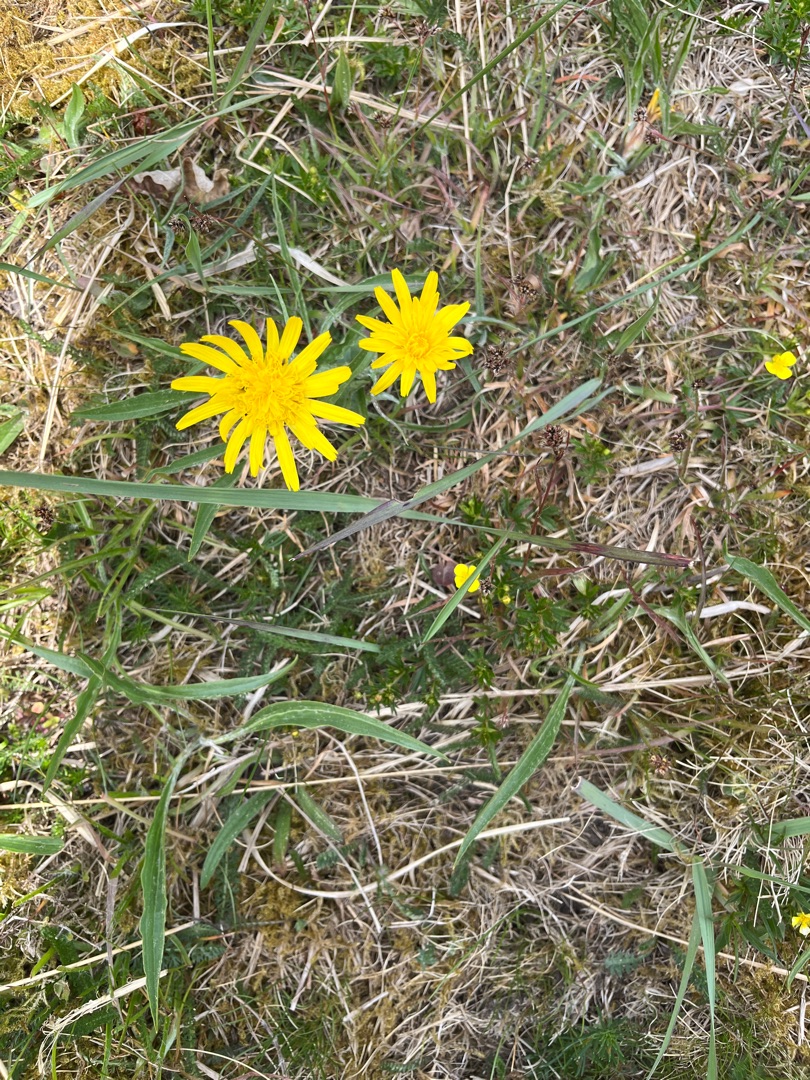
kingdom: Plantae
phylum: Tracheophyta
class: Magnoliopsida
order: Asterales
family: Asteraceae
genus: Scorzonera
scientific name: Scorzonera humilis
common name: Lav skorsoner
